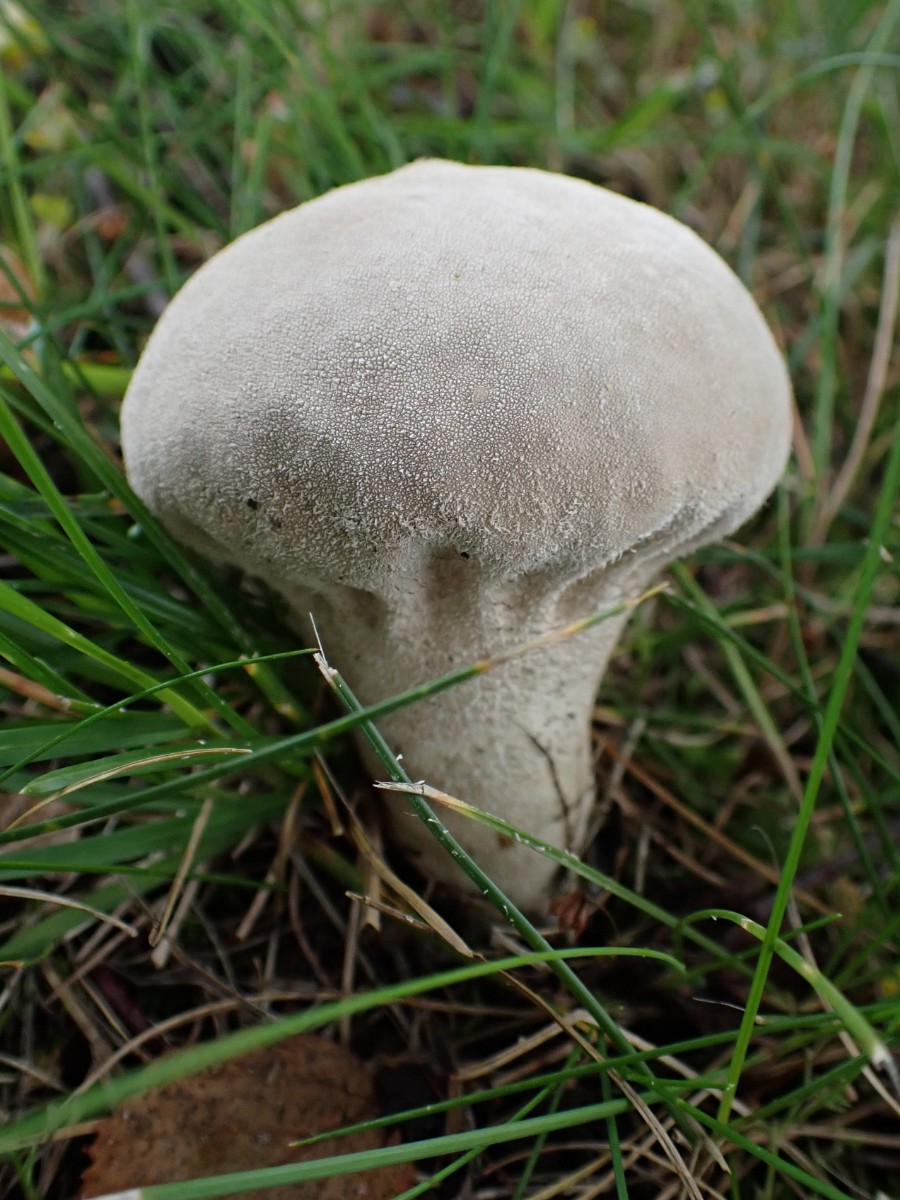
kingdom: Fungi
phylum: Basidiomycota
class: Agaricomycetes
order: Agaricales
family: Lycoperdaceae
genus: Lycoperdon
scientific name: Lycoperdon excipuliforme
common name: højstokket støvbold
